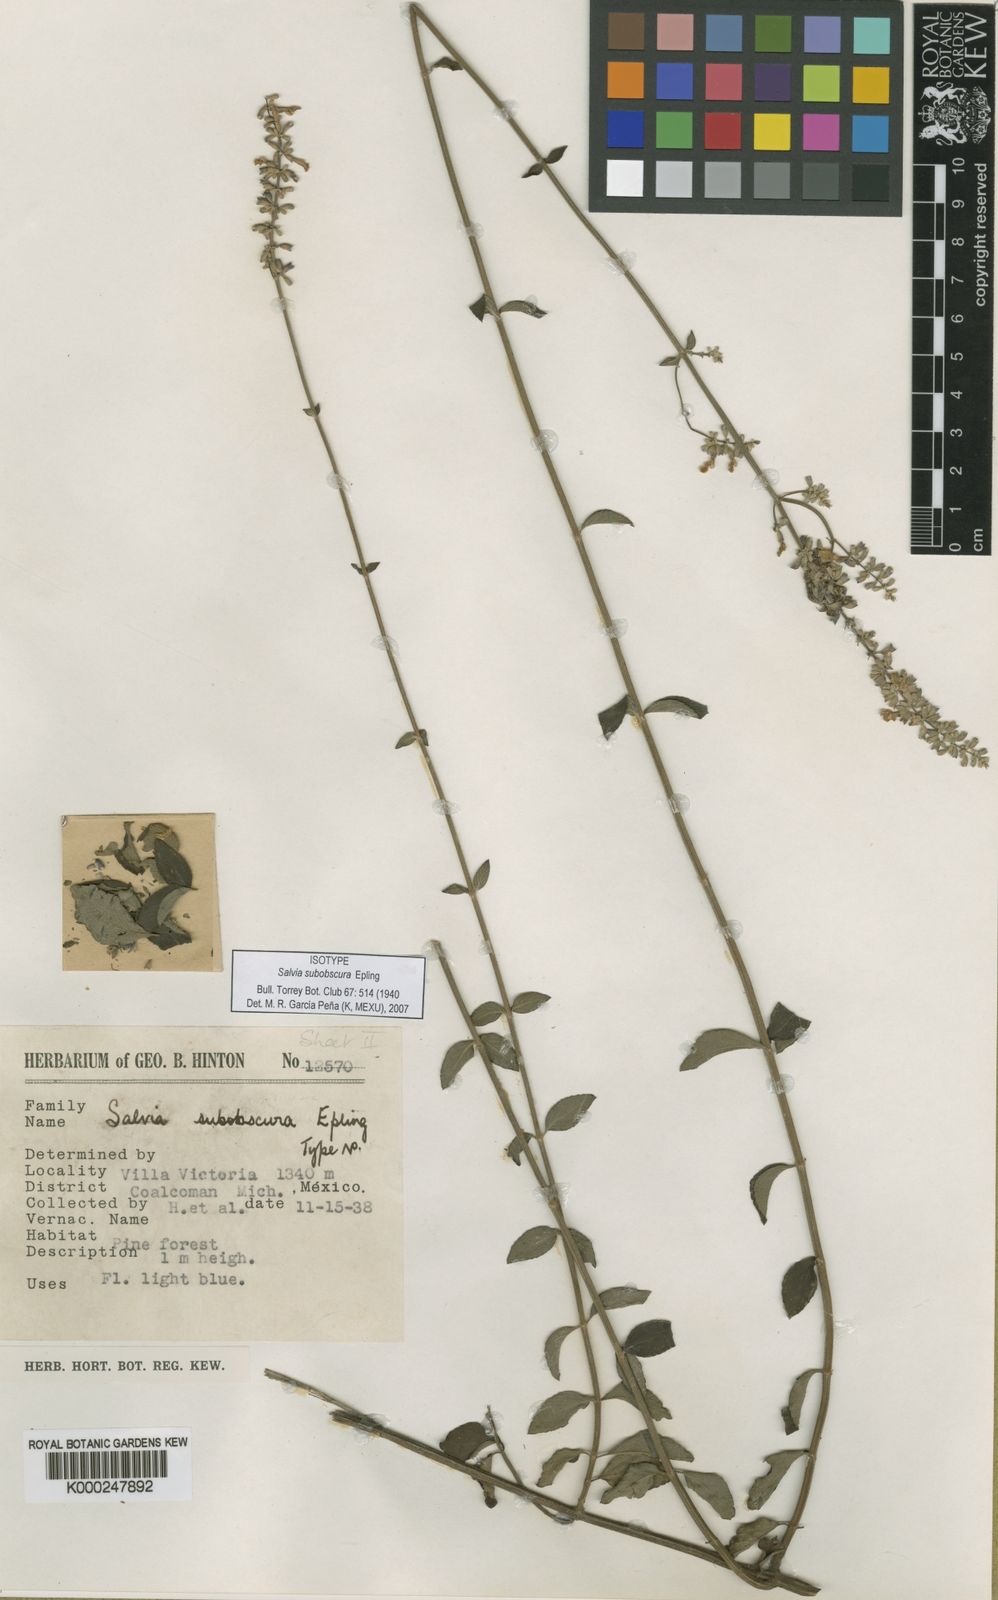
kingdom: Plantae
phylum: Tracheophyta
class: Magnoliopsida
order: Lamiales
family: Lamiaceae
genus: Salvia
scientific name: Salvia subobscura
